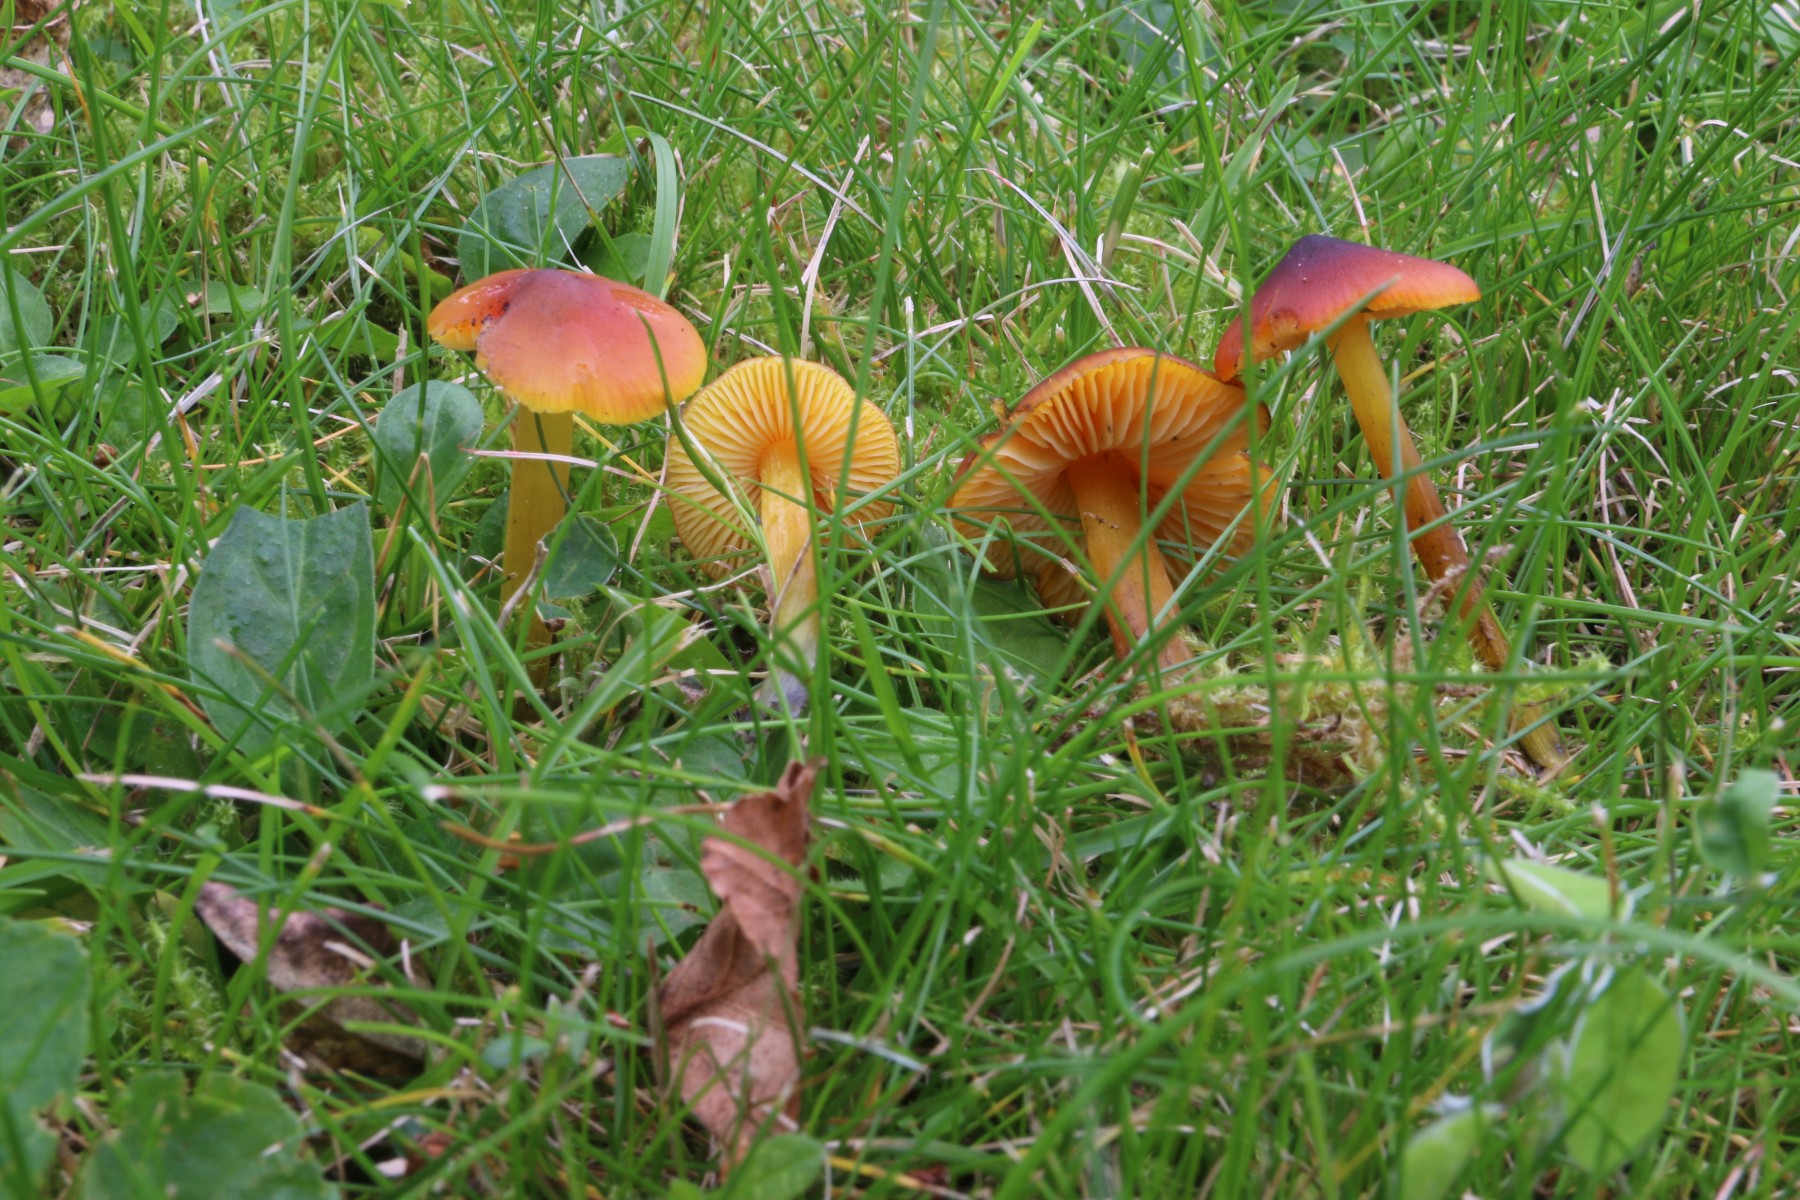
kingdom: Fungi
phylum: Basidiomycota
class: Agaricomycetes
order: Agaricales
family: Hygrophoraceae
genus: Hygrocybe
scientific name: Hygrocybe conica
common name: kegle-vokshat
